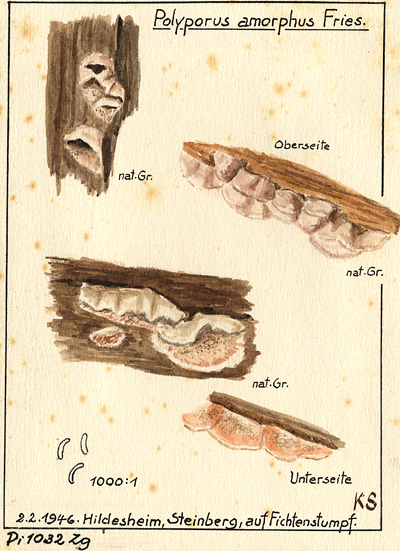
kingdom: Plantae
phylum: Tracheophyta
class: Pinopsida
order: Pinales
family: Pinaceae
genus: Picea
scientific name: Picea abies
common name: Norway spruce
